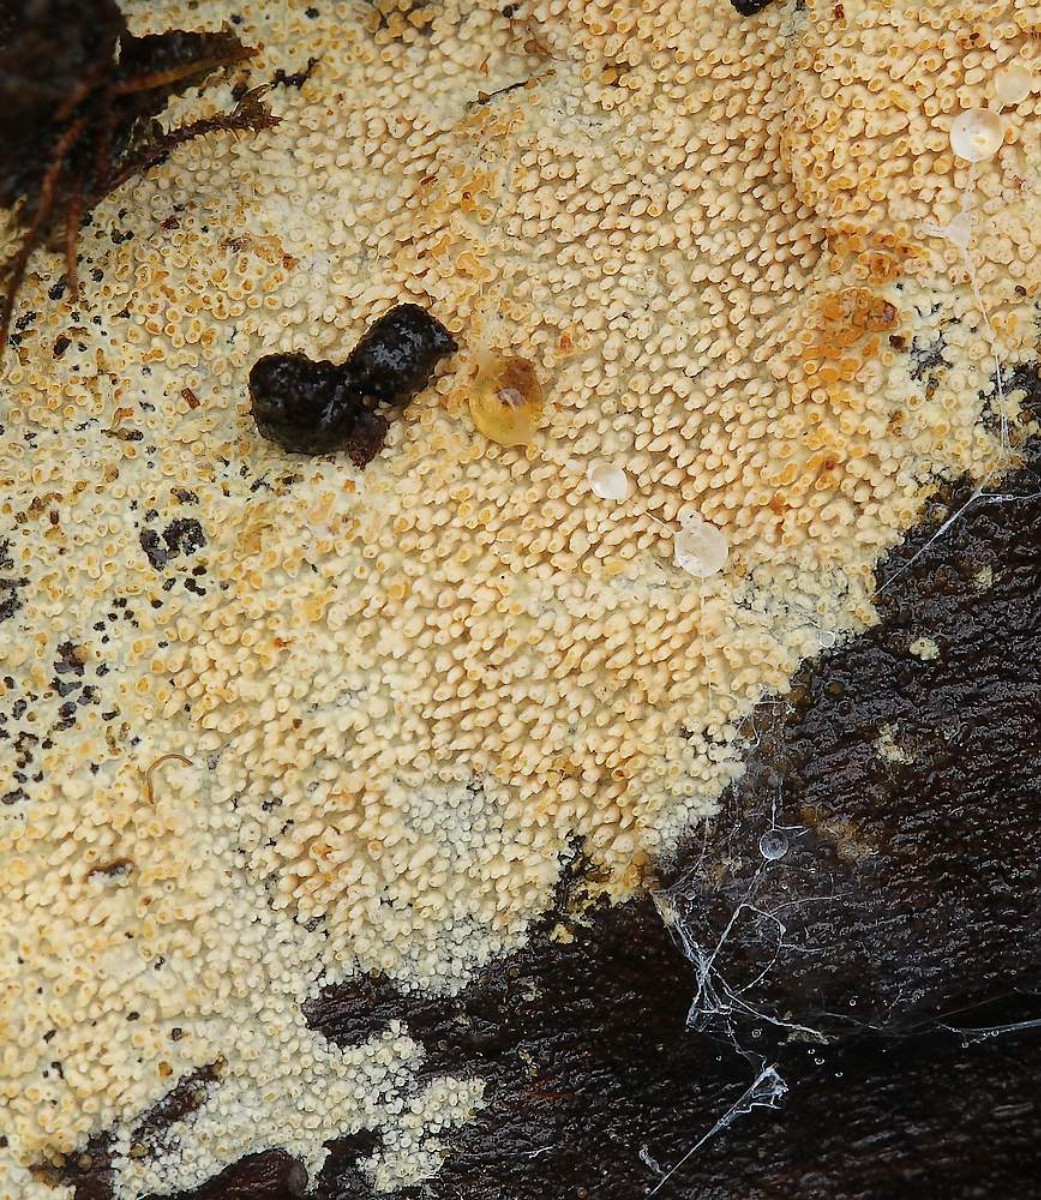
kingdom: Fungi
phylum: Basidiomycota
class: Agaricomycetes
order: Polyporales
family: Steccherinaceae
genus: Steccherinum
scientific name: Steccherinum ochraceum
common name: almindelig skønpig
